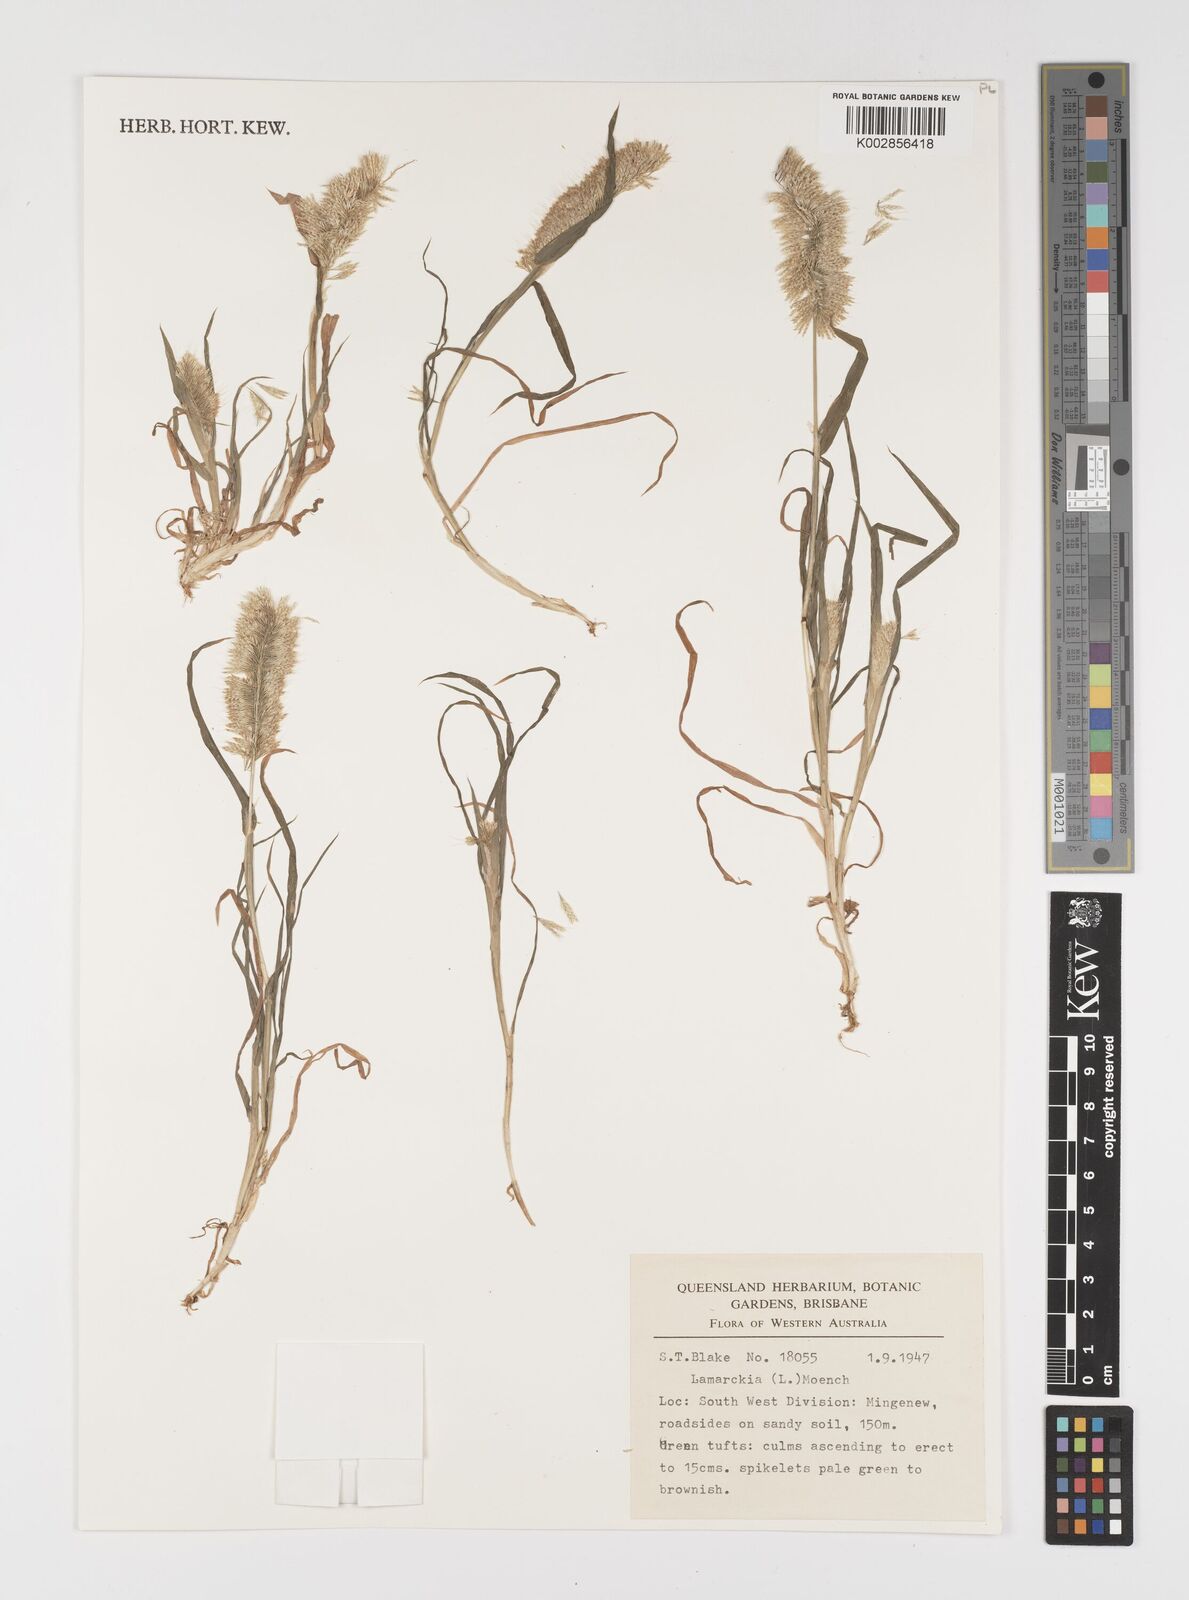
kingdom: Plantae
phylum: Tracheophyta
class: Liliopsida
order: Poales
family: Poaceae
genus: Lamarckia
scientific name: Lamarckia aurea
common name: Golden dog's-tail
